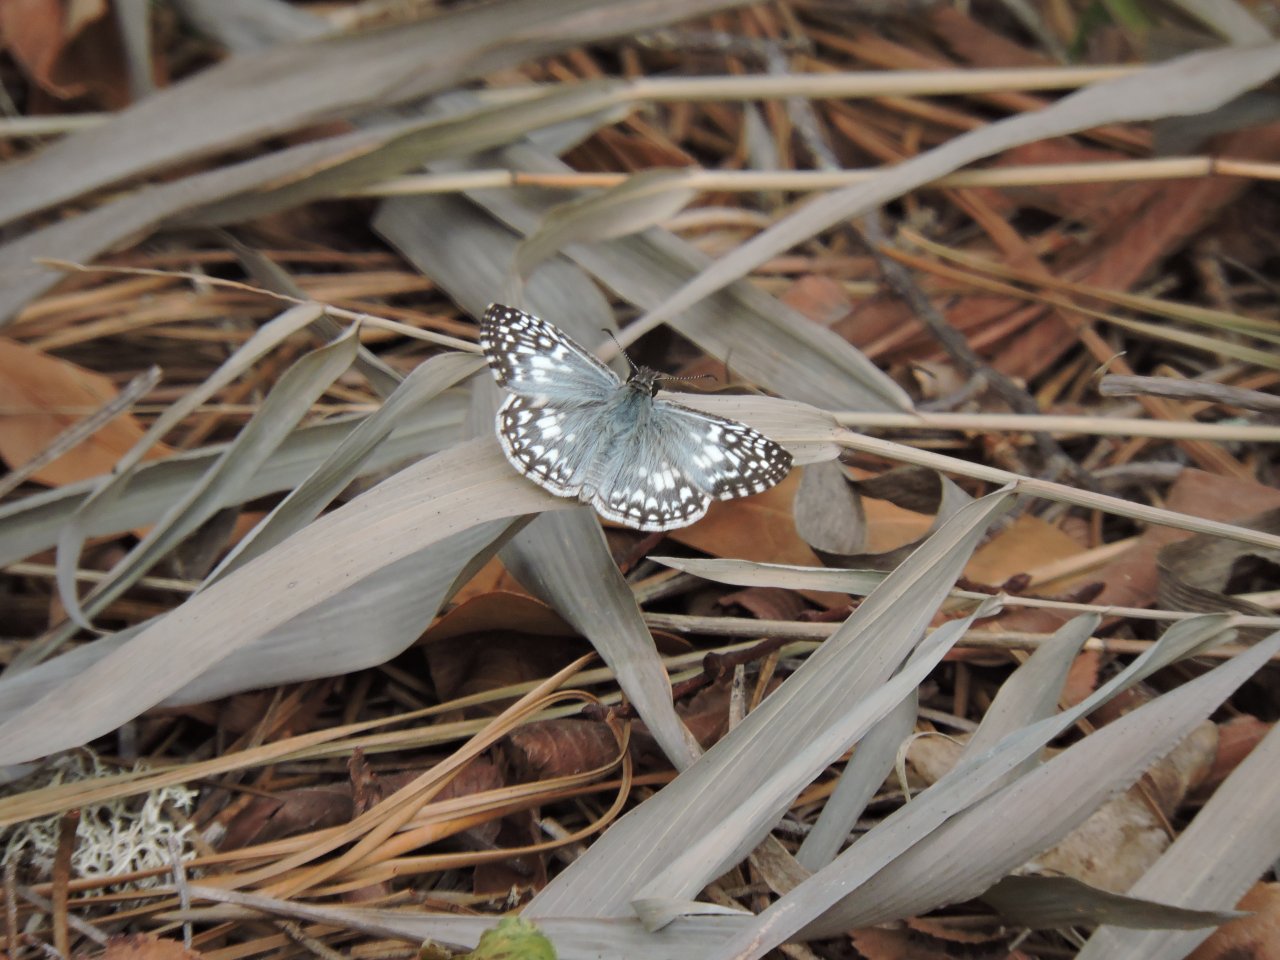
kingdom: Animalia
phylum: Arthropoda
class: Insecta
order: Lepidoptera
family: Hesperiidae
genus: Pyrgus
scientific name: Pyrgus oileus
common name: Tropical Checkered-Skipper
